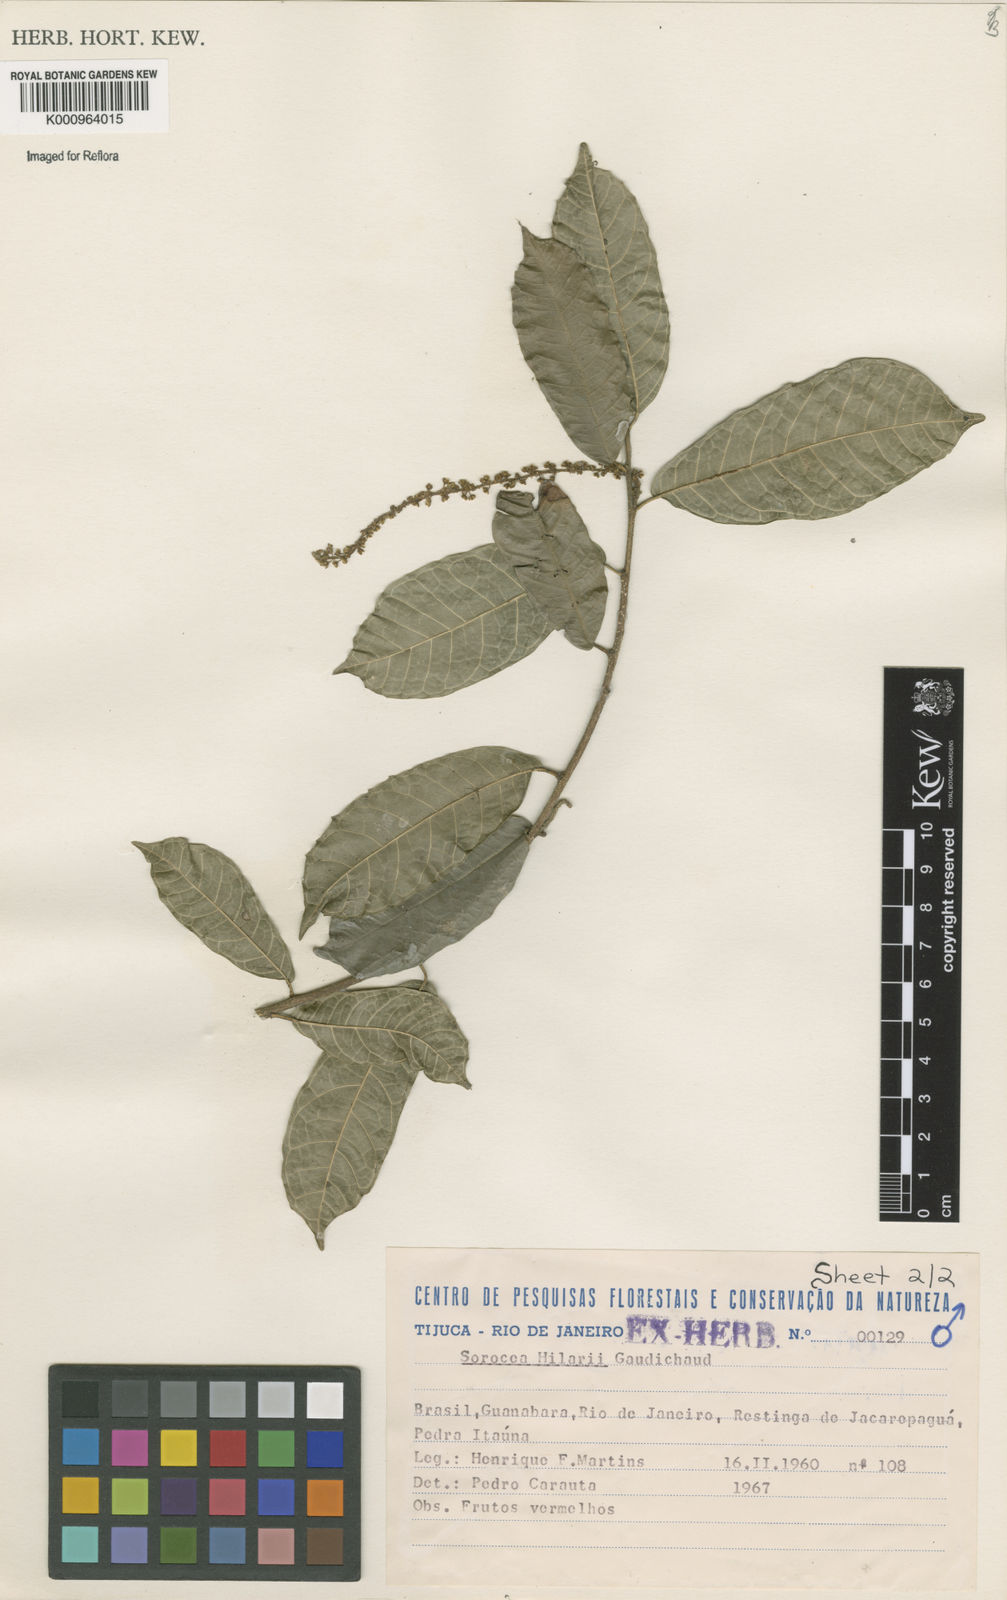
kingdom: Plantae
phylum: Tracheophyta
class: Magnoliopsida
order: Rosales
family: Moraceae
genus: Sorocea
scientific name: Sorocea hilarii
